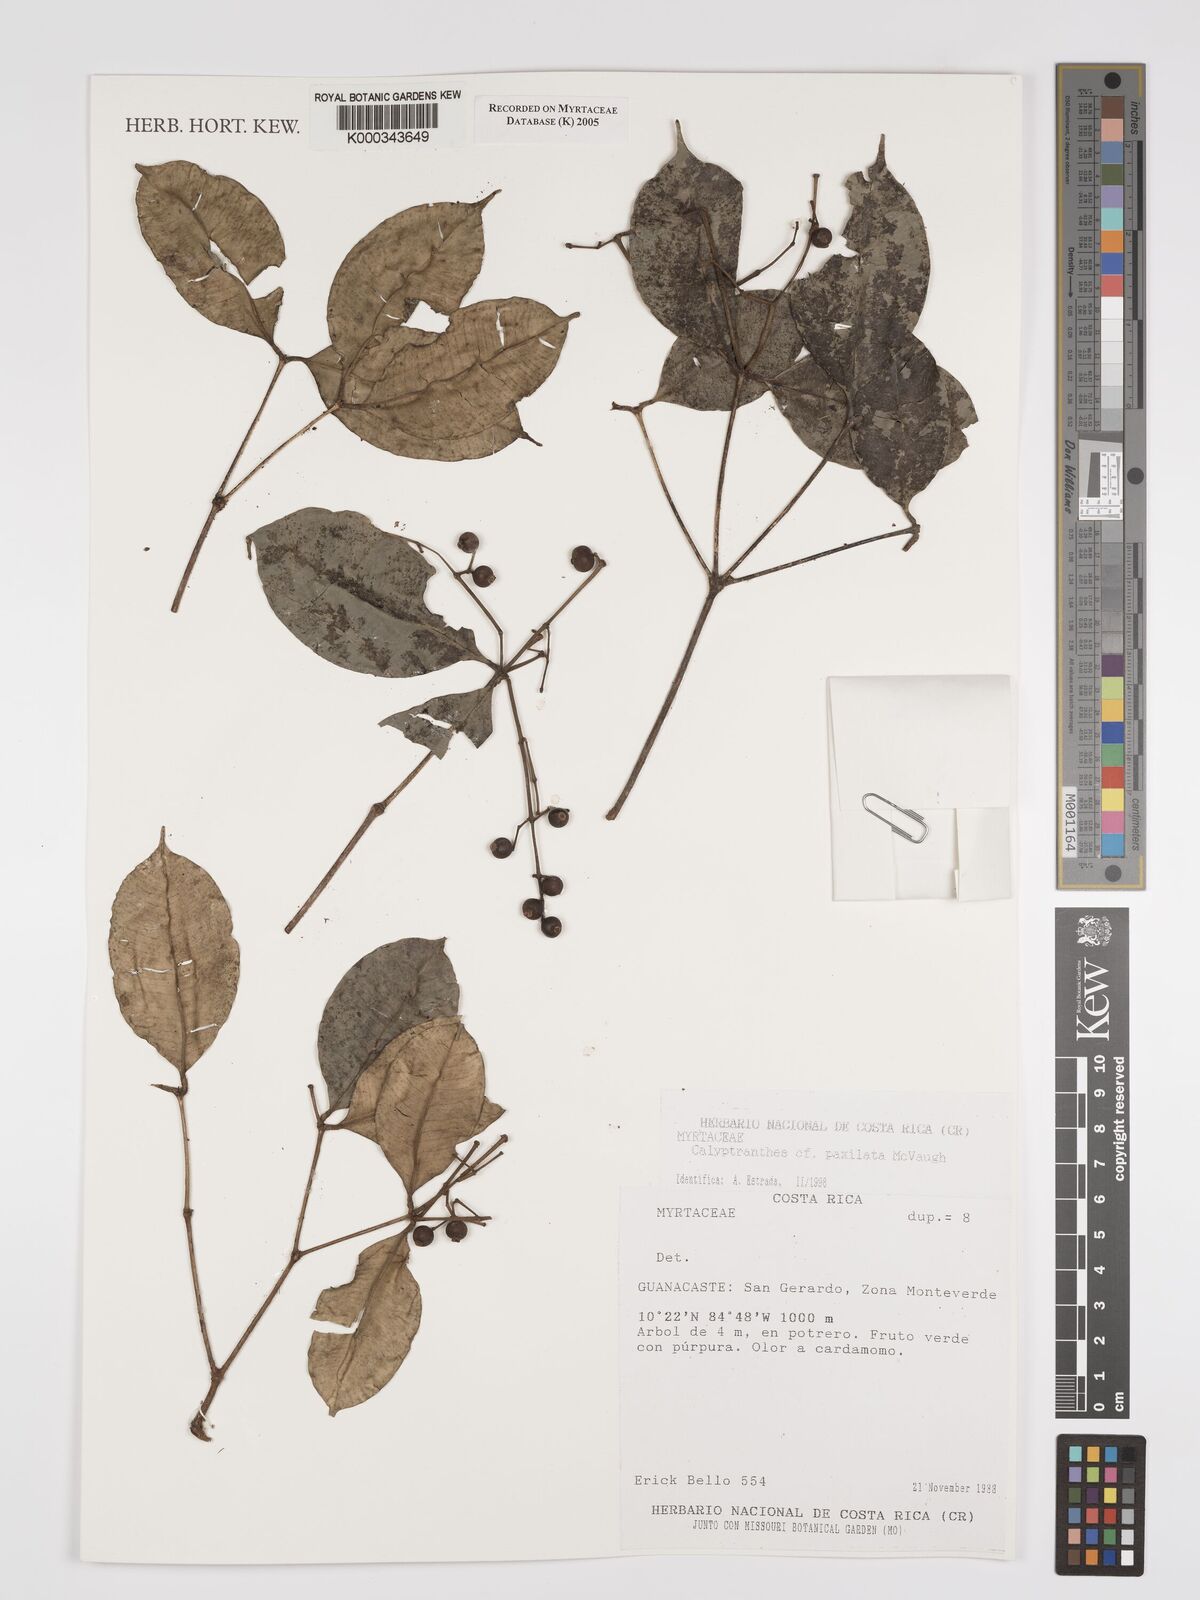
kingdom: Plantae
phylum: Tracheophyta
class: Magnoliopsida
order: Myrtales
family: Myrtaceae
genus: Myrcia
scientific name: Myrcia paxillata
